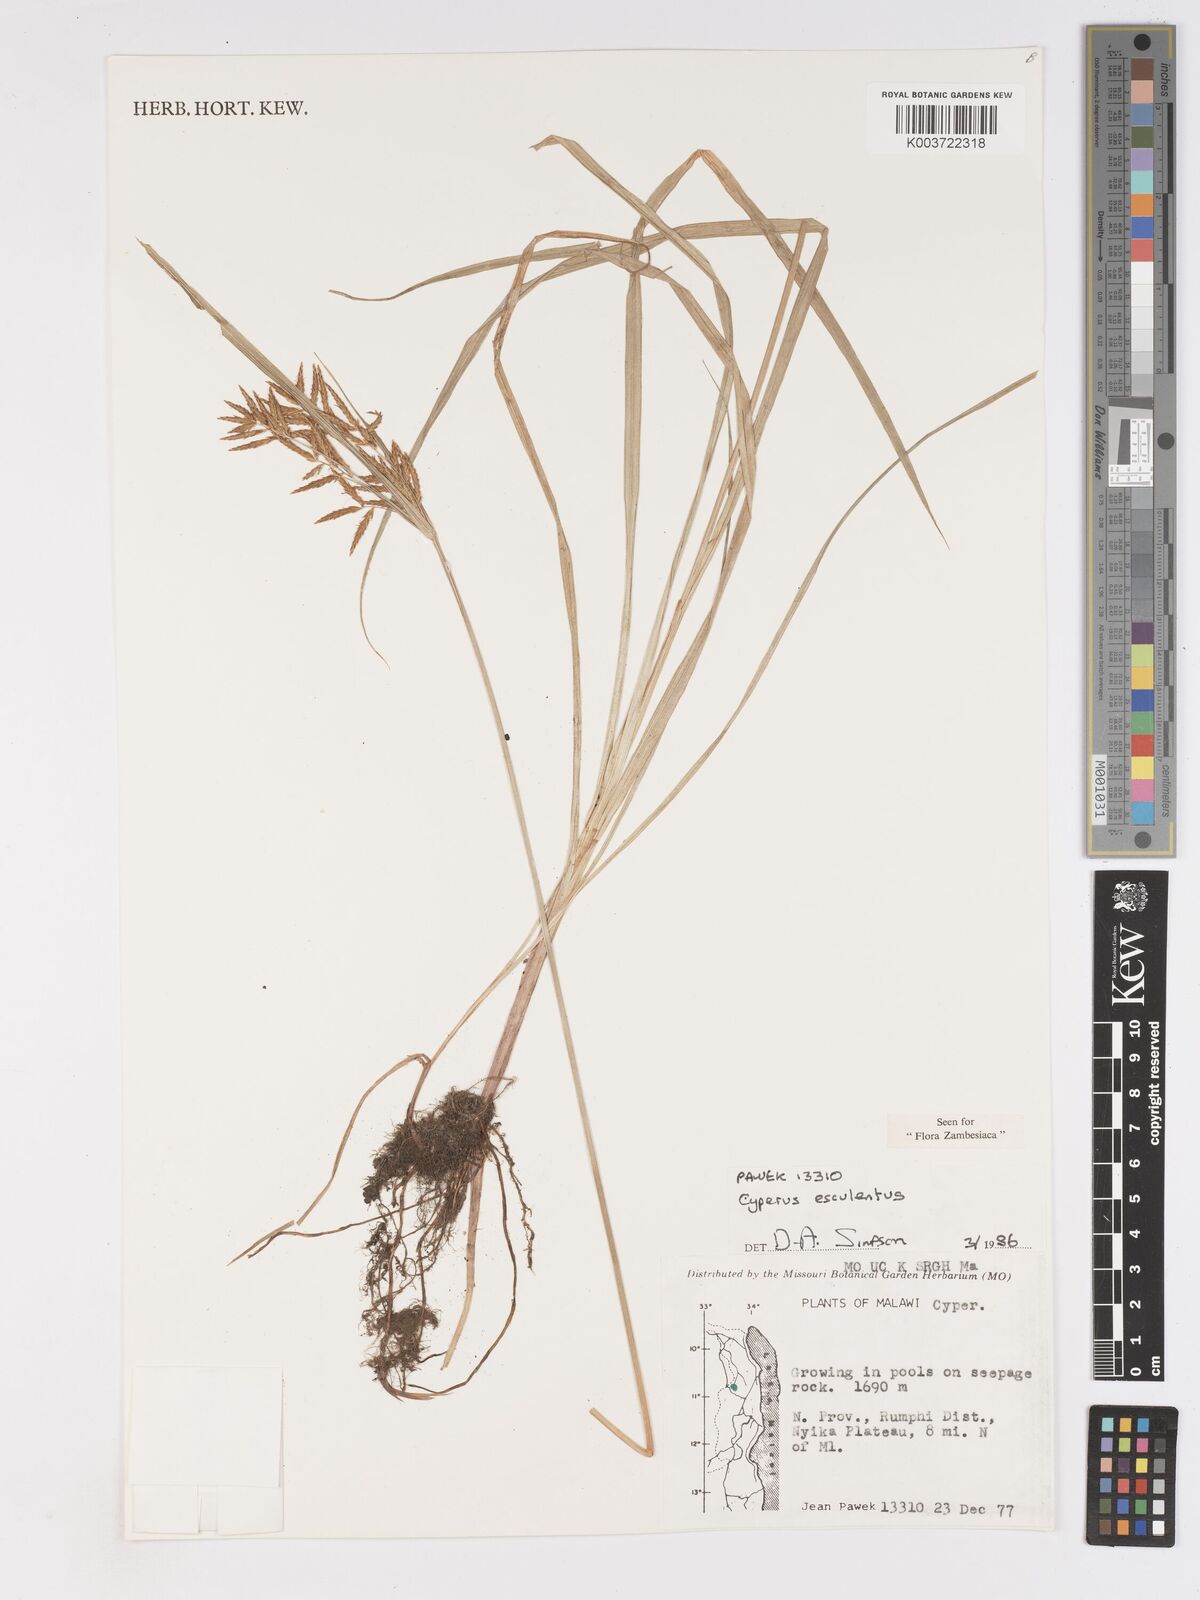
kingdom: Plantae
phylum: Tracheophyta
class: Liliopsida
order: Poales
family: Cyperaceae
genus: Cyperus
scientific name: Cyperus esculentus
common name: Yellow nutsedge
